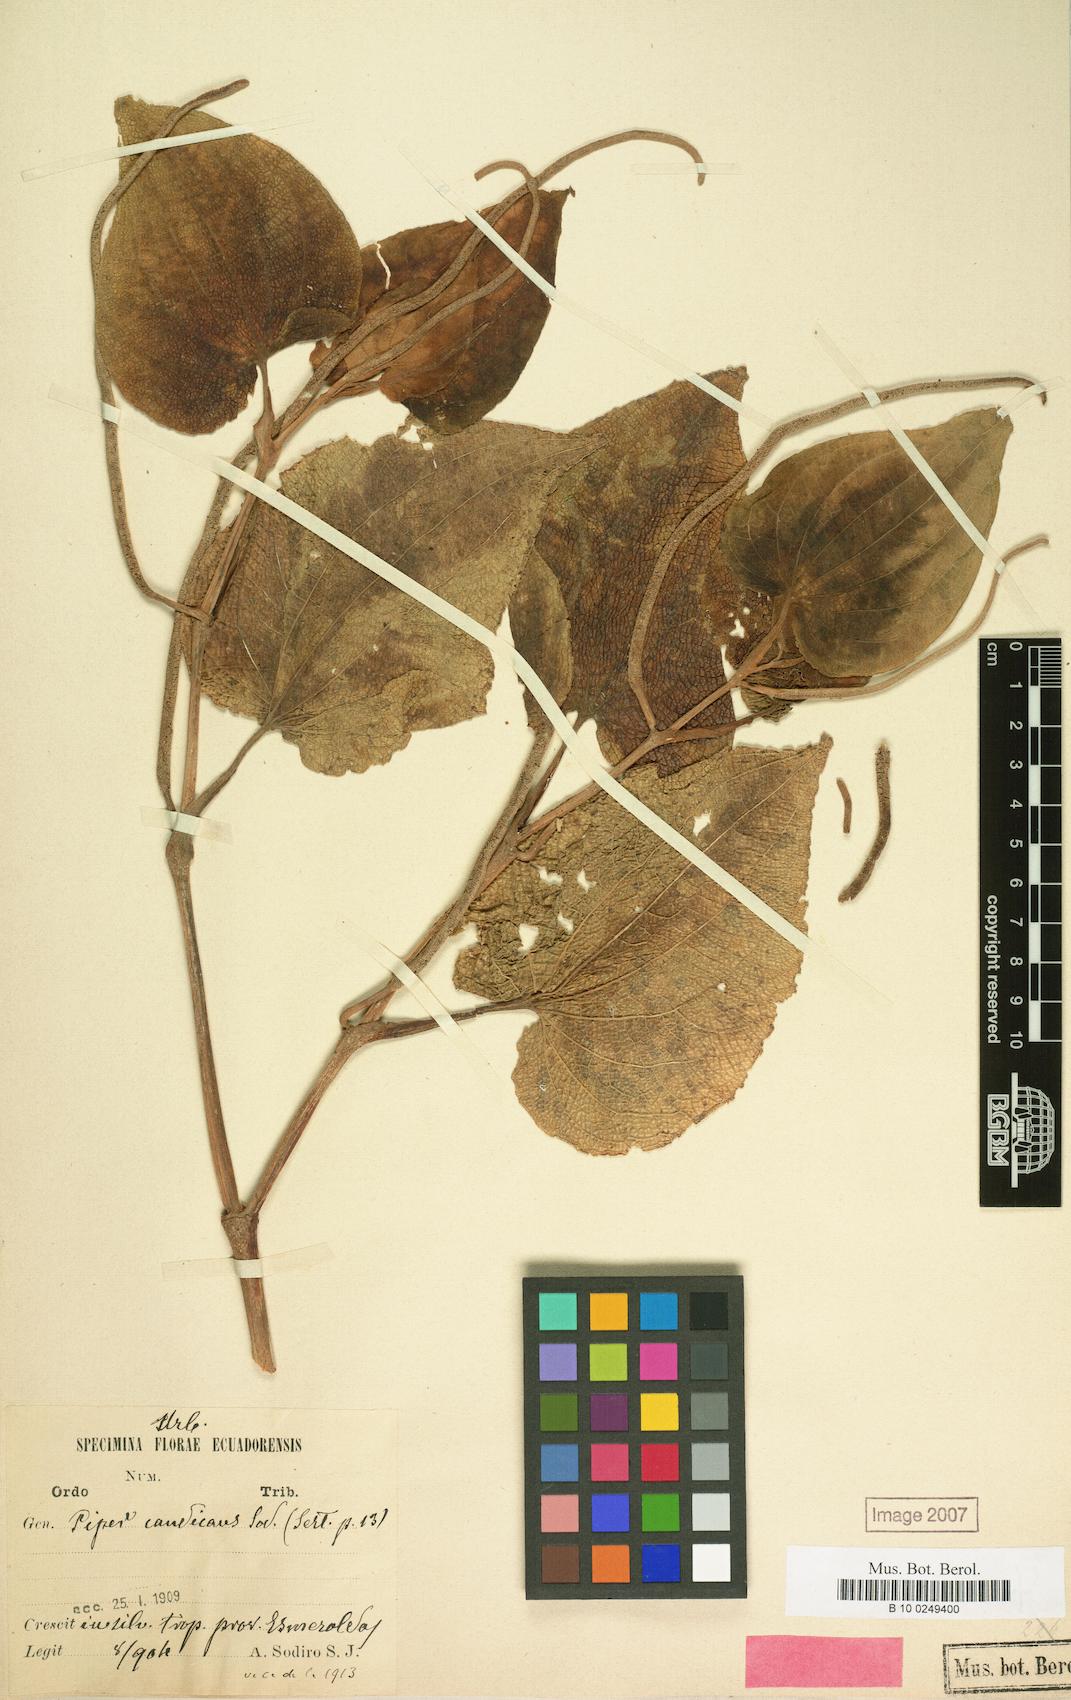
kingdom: Plantae
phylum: Tracheophyta
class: Magnoliopsida
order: Piperales
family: Piperaceae
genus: Piper
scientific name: Piper cinereum
